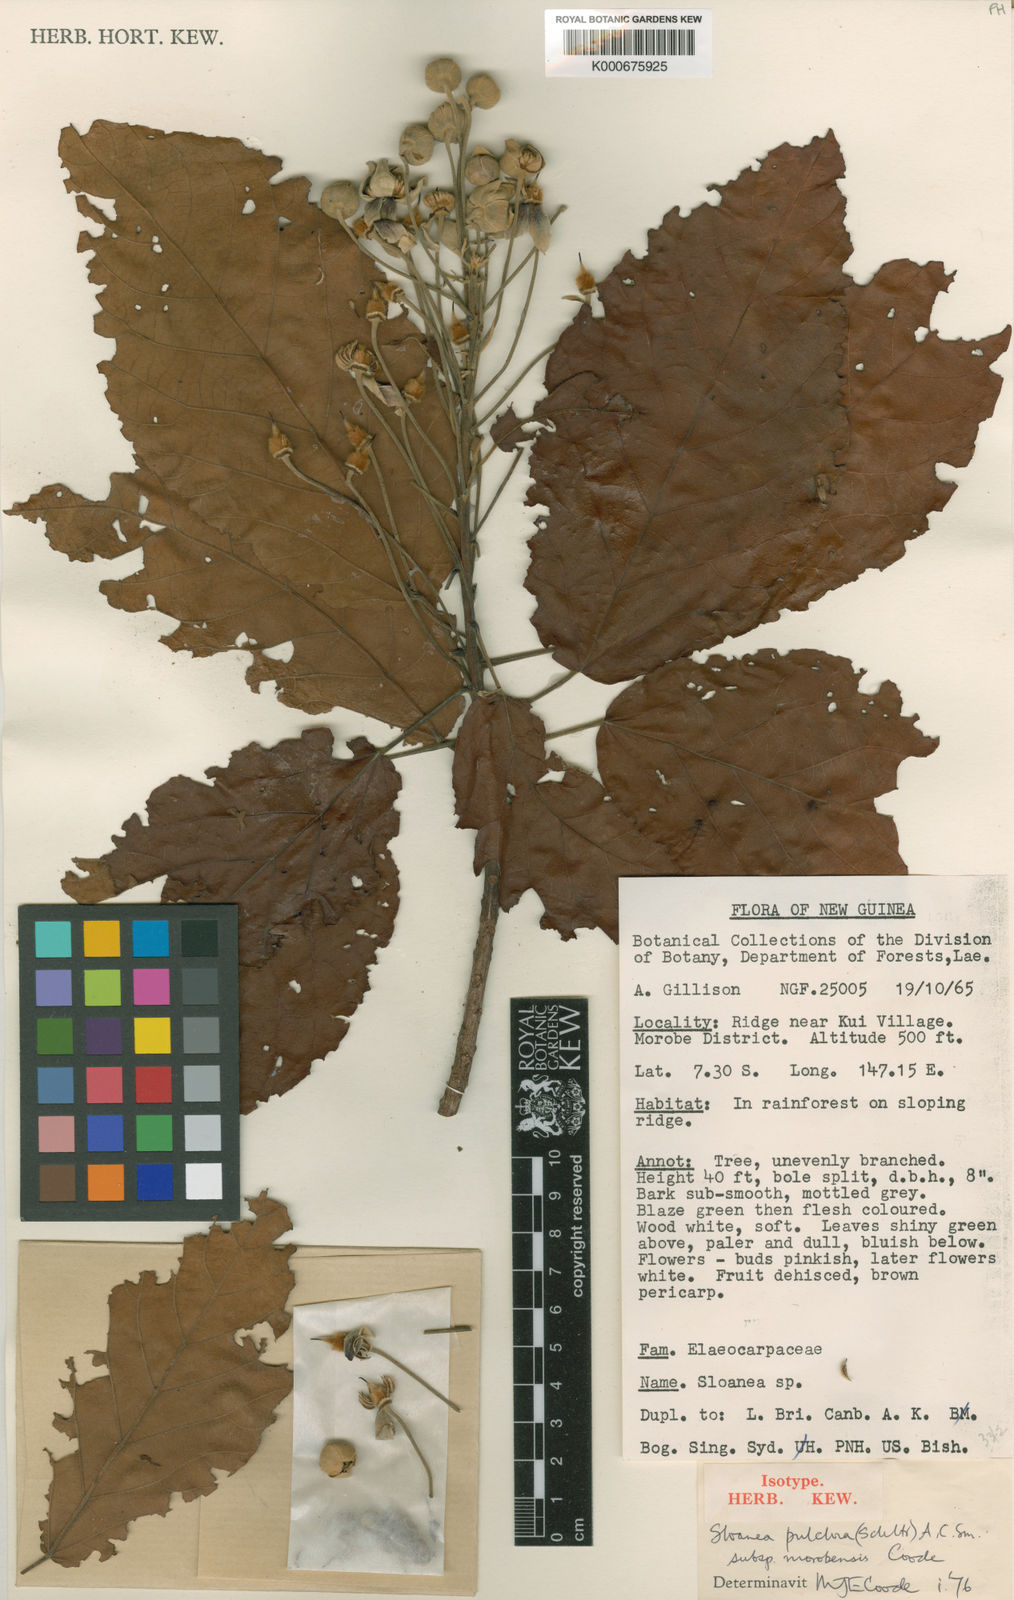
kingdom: Plantae
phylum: Tracheophyta
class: Magnoliopsida
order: Oxalidales
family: Elaeocarpaceae
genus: Sloanea
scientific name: Sloanea pulchra
